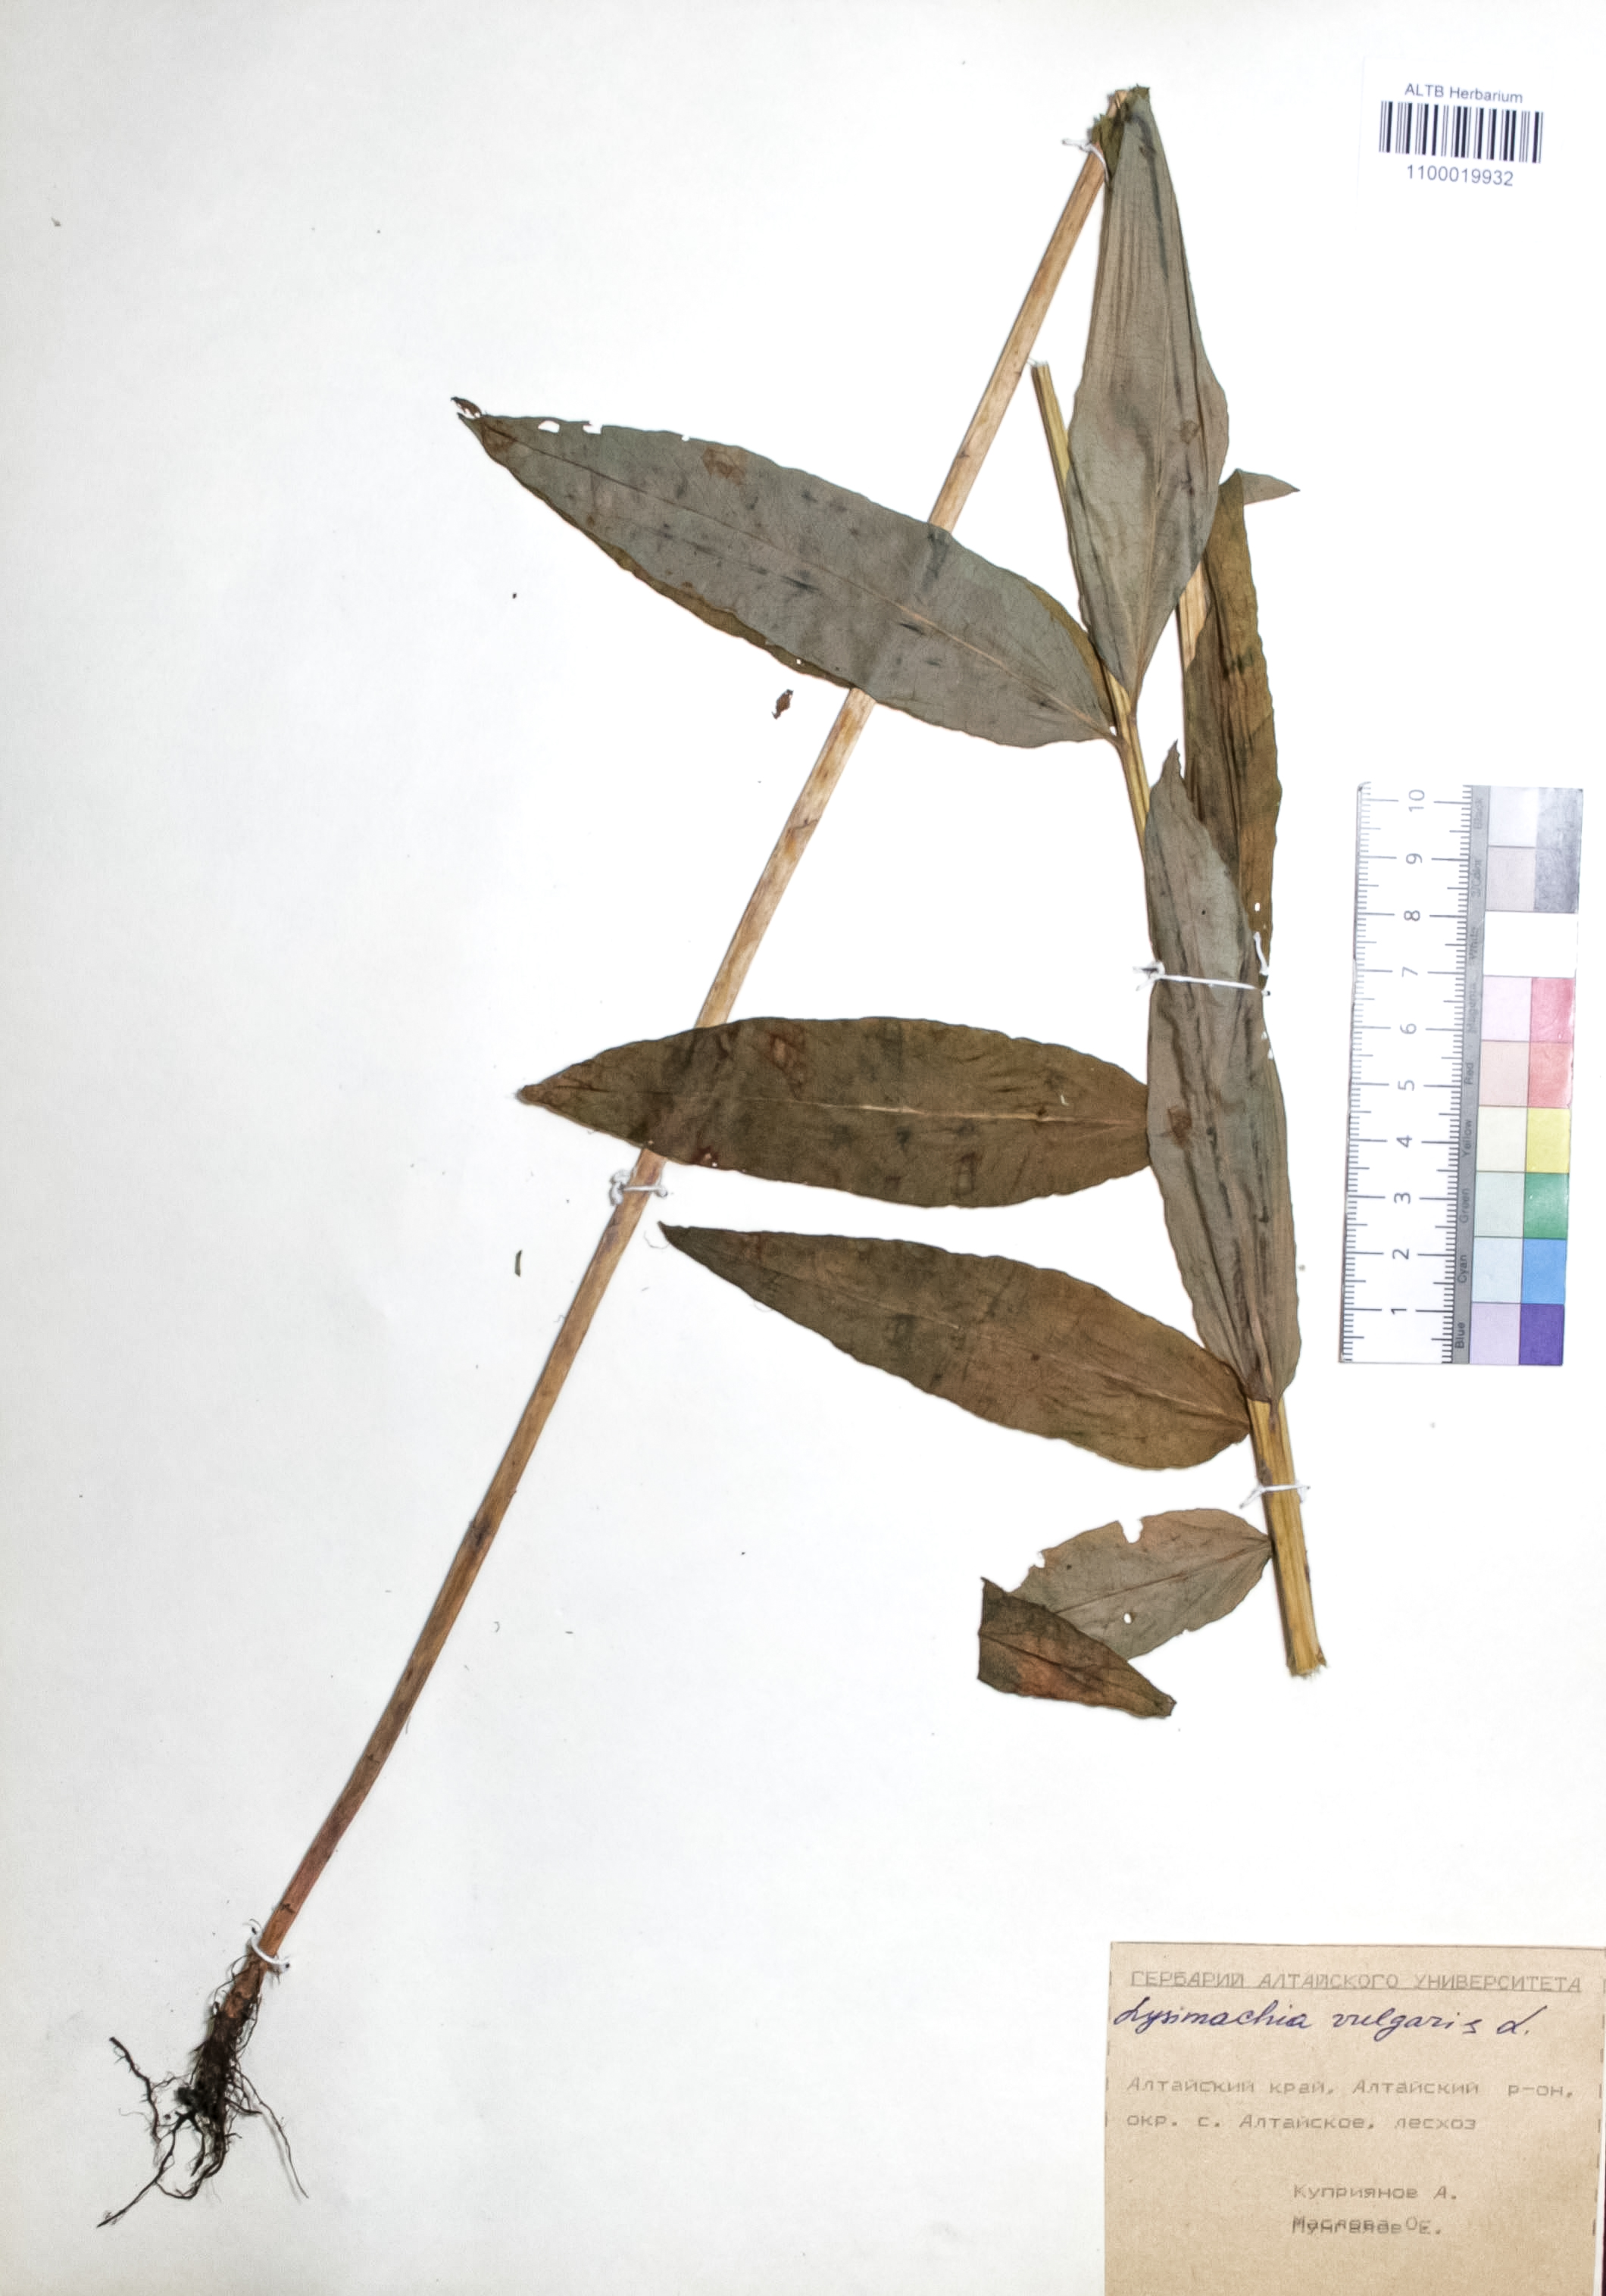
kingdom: Plantae
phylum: Tracheophyta
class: Magnoliopsida
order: Ericales
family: Primulaceae
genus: Lysimachia
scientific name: Lysimachia vulgaris
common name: Yellow loosestrife
